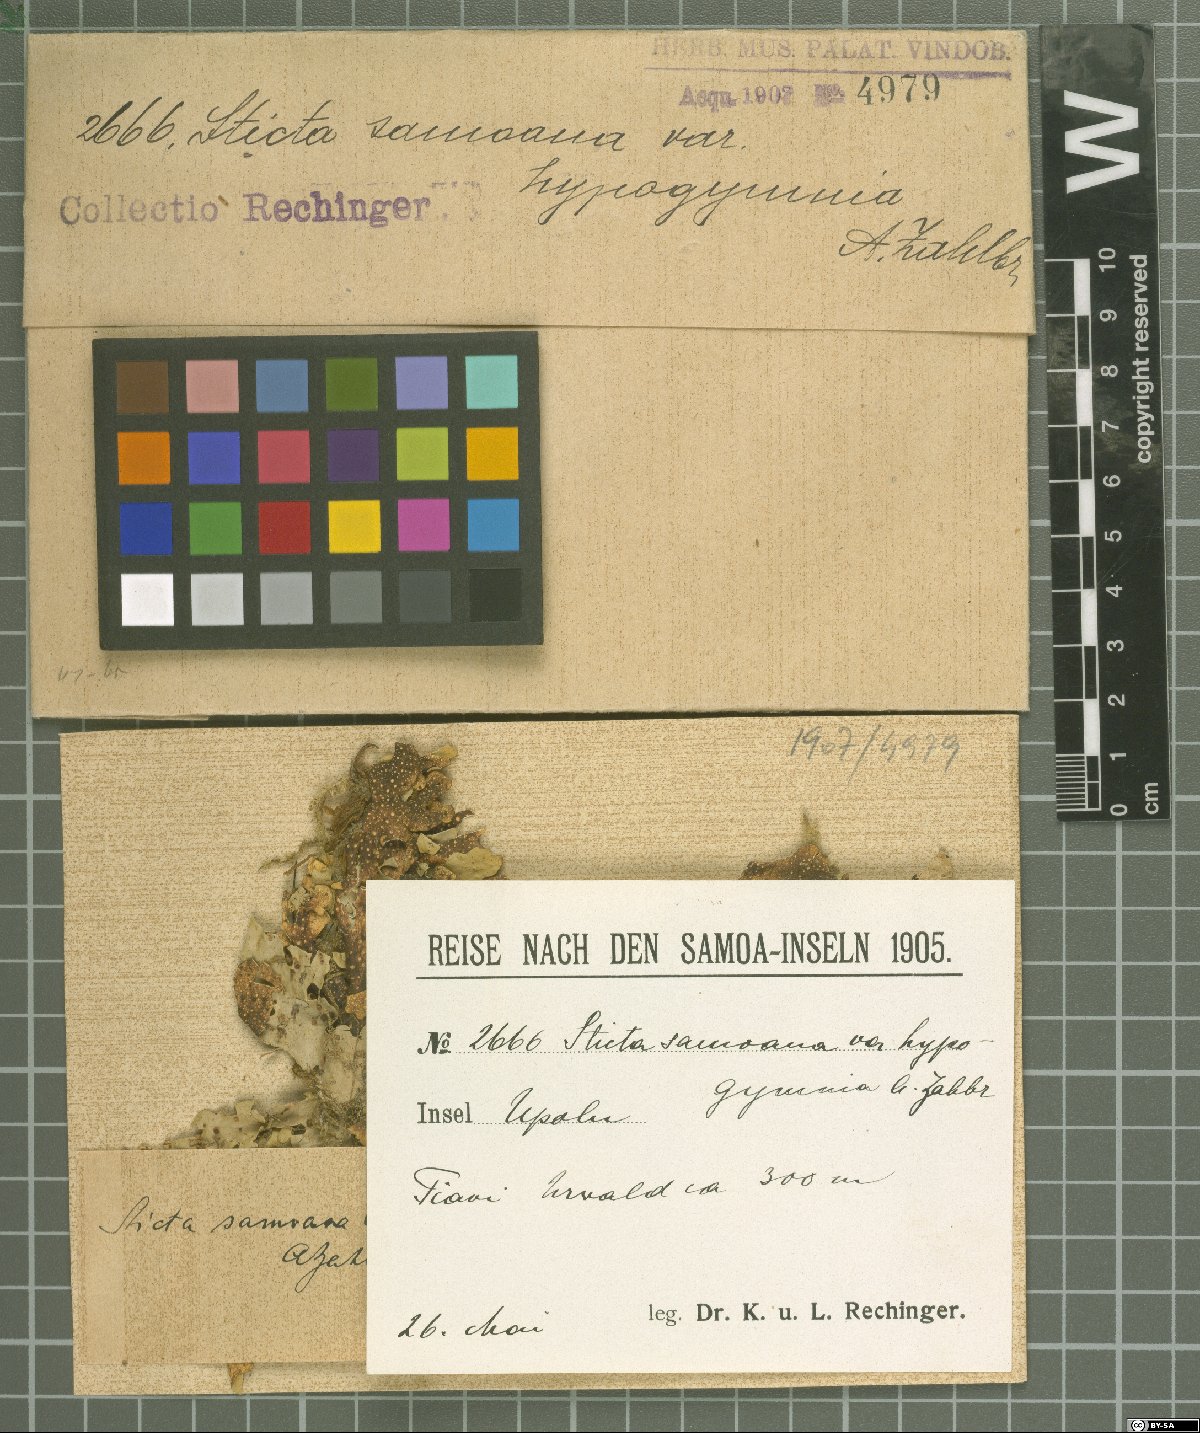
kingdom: Fungi
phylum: Ascomycota
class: Lecanoromycetes
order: Peltigerales
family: Lobariaceae
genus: Sticta
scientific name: Sticta
